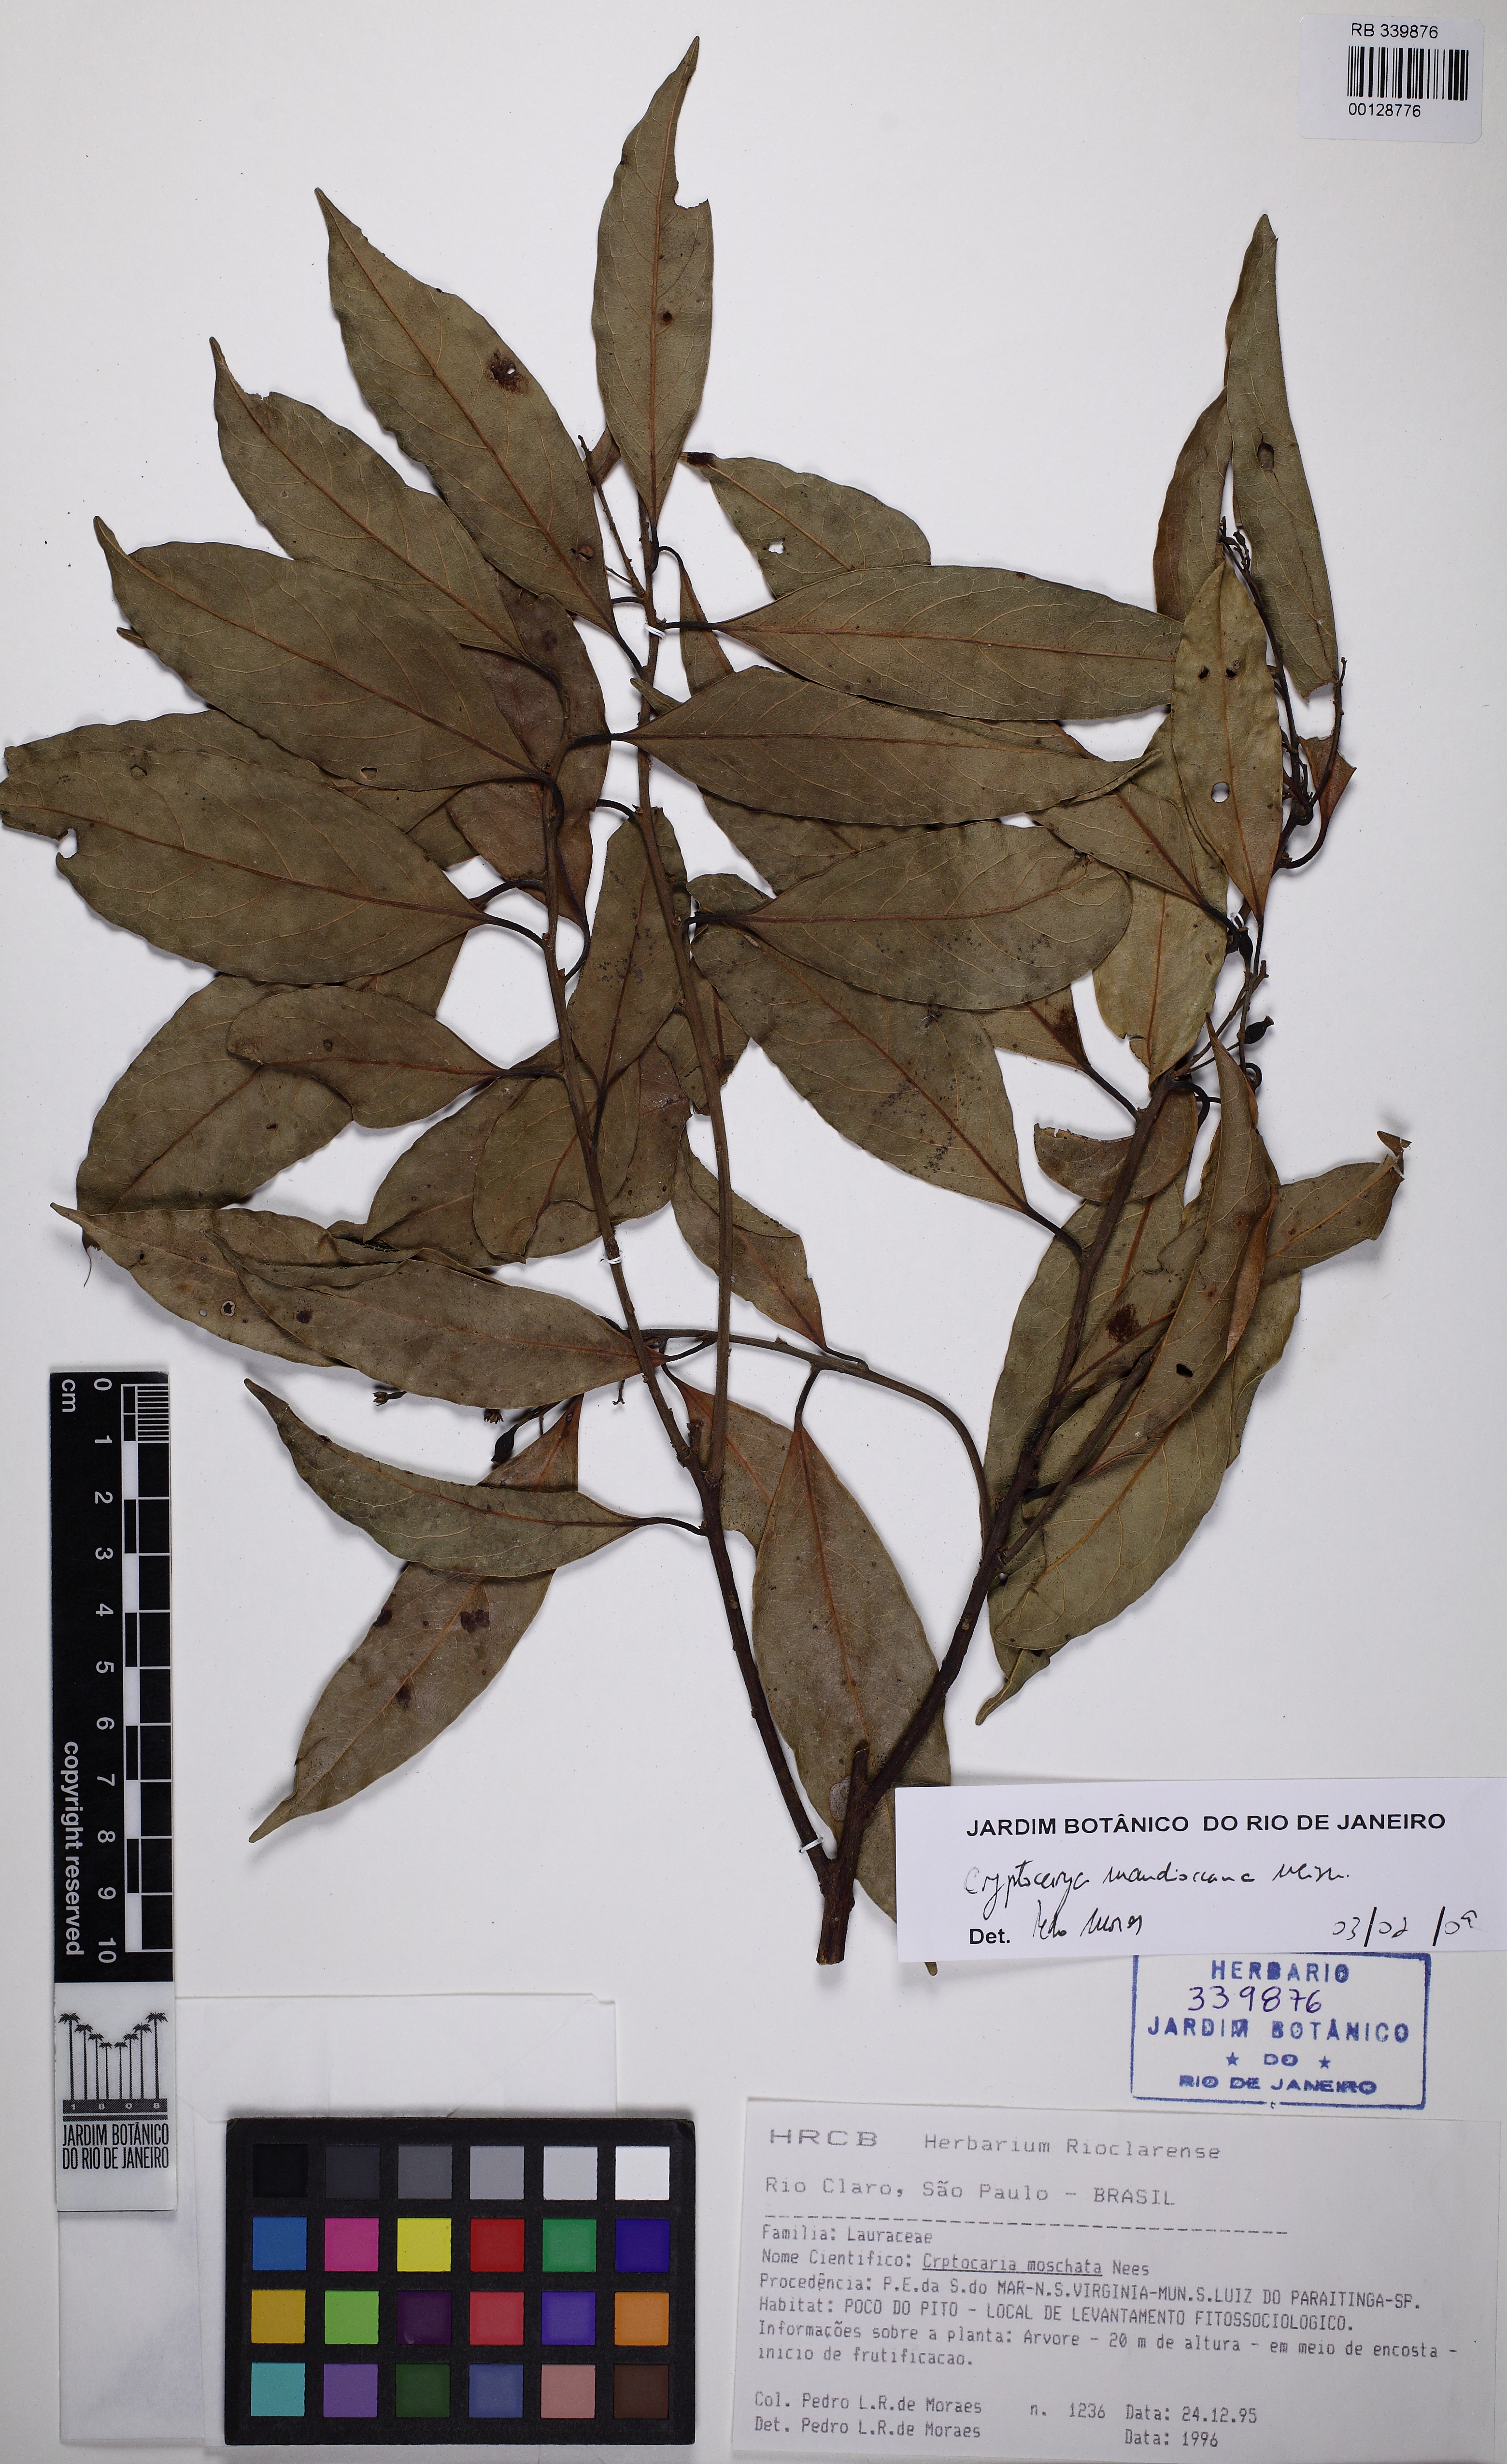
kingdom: Plantae
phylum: Tracheophyta
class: Magnoliopsida
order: Laurales
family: Lauraceae
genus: Cryptocarya
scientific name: Cryptocarya moschata
